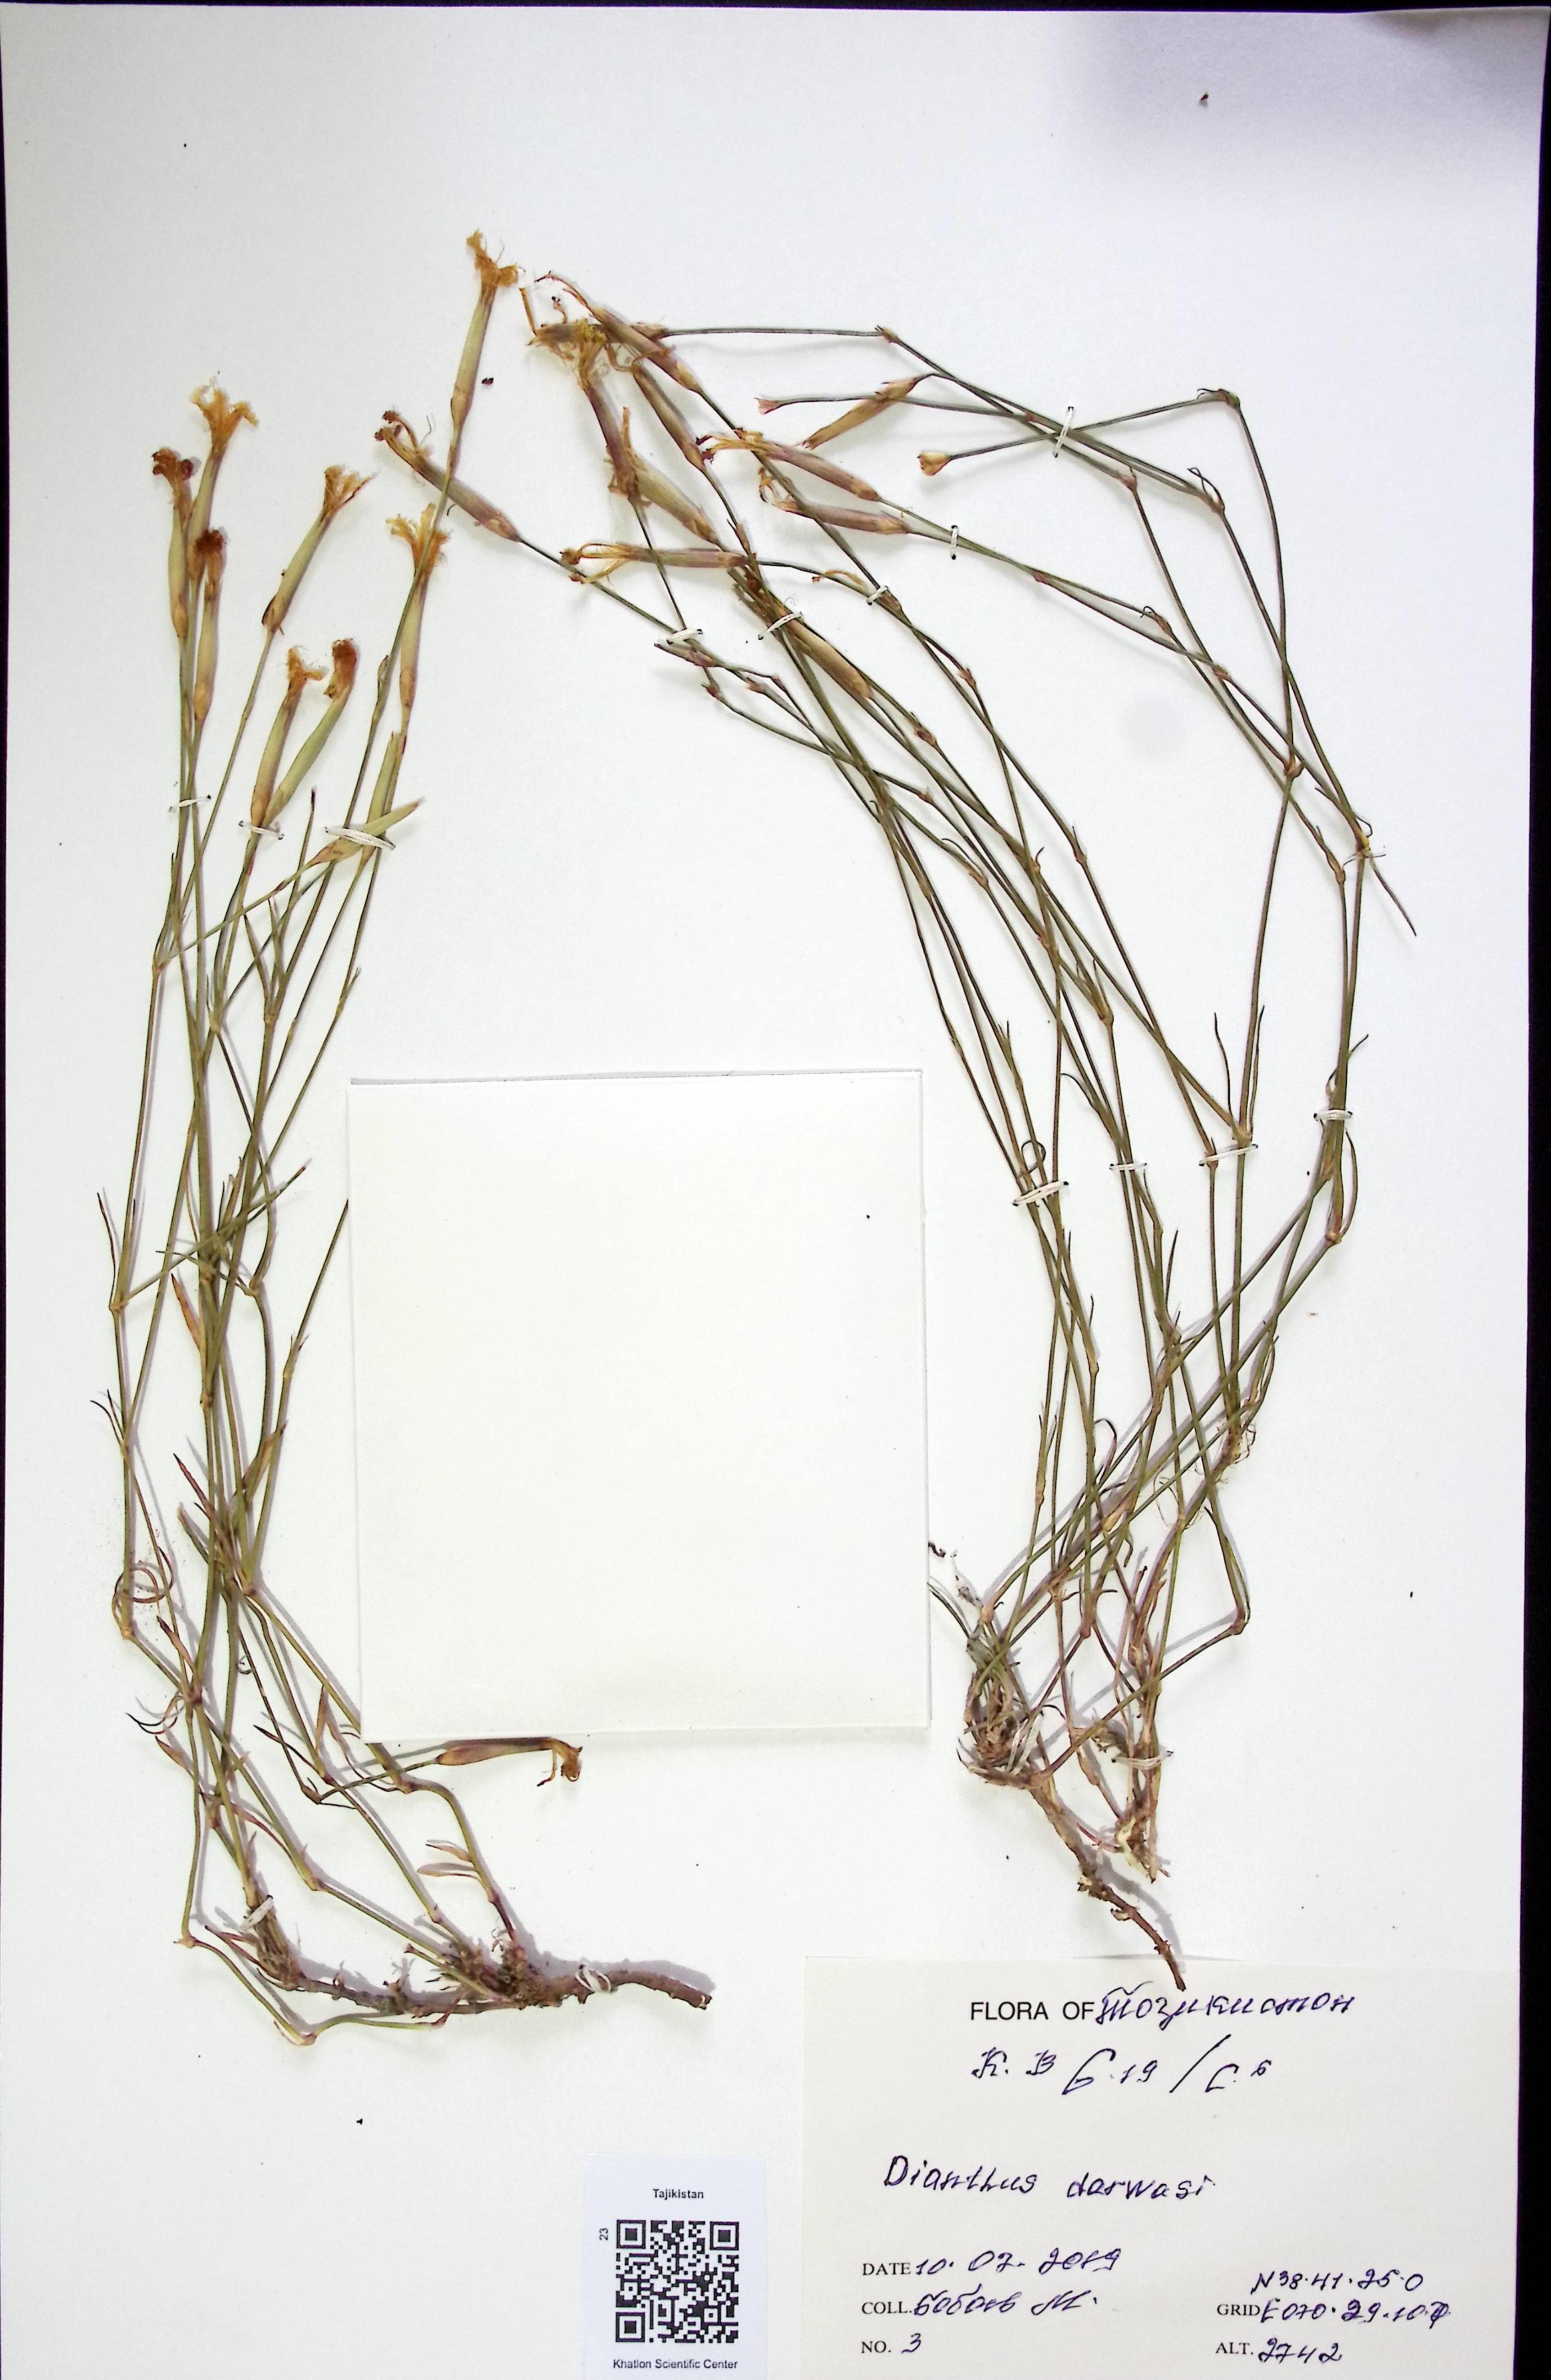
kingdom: Plantae
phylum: Tracheophyta
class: Magnoliopsida
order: Caryophyllales
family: Caryophyllaceae
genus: Dianthus
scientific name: Dianthus
